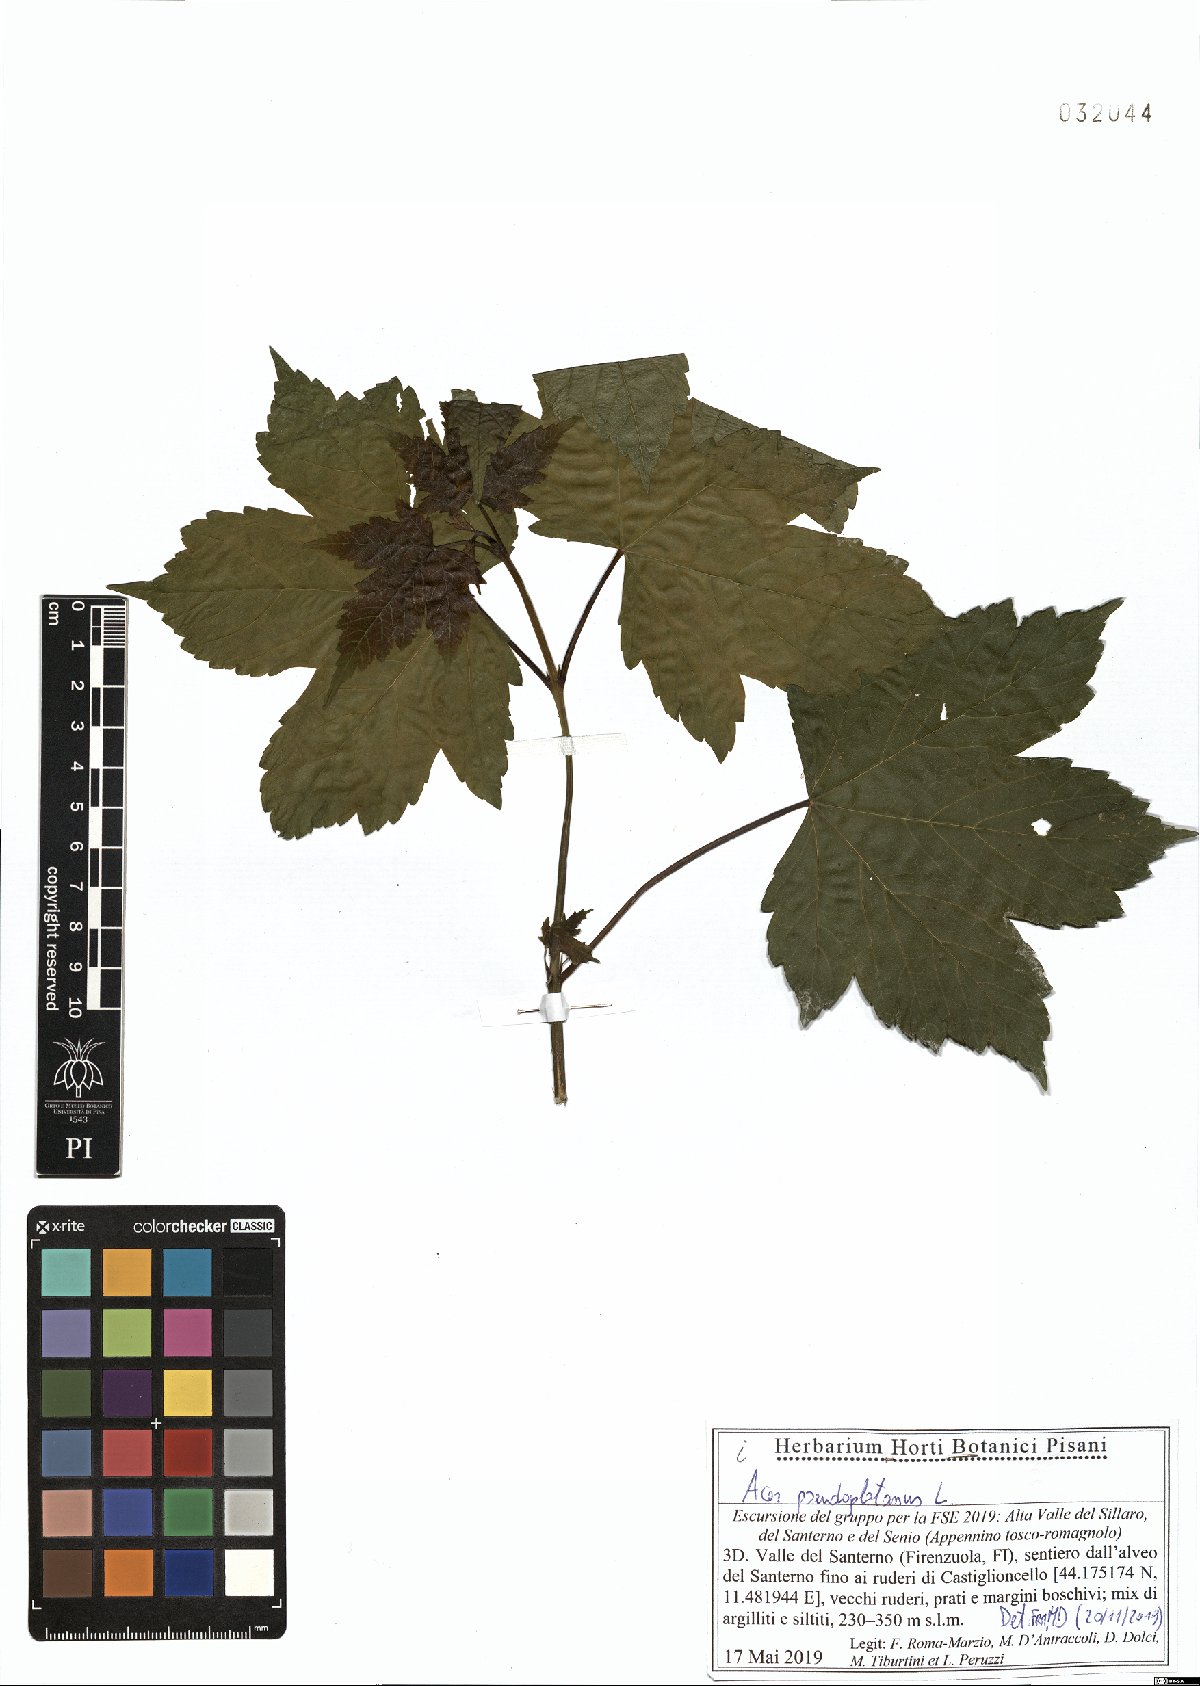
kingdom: Plantae
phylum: Tracheophyta
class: Magnoliopsida
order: Sapindales
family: Sapindaceae
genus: Acer
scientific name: Acer pseudoplatanus
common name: Sycamore
